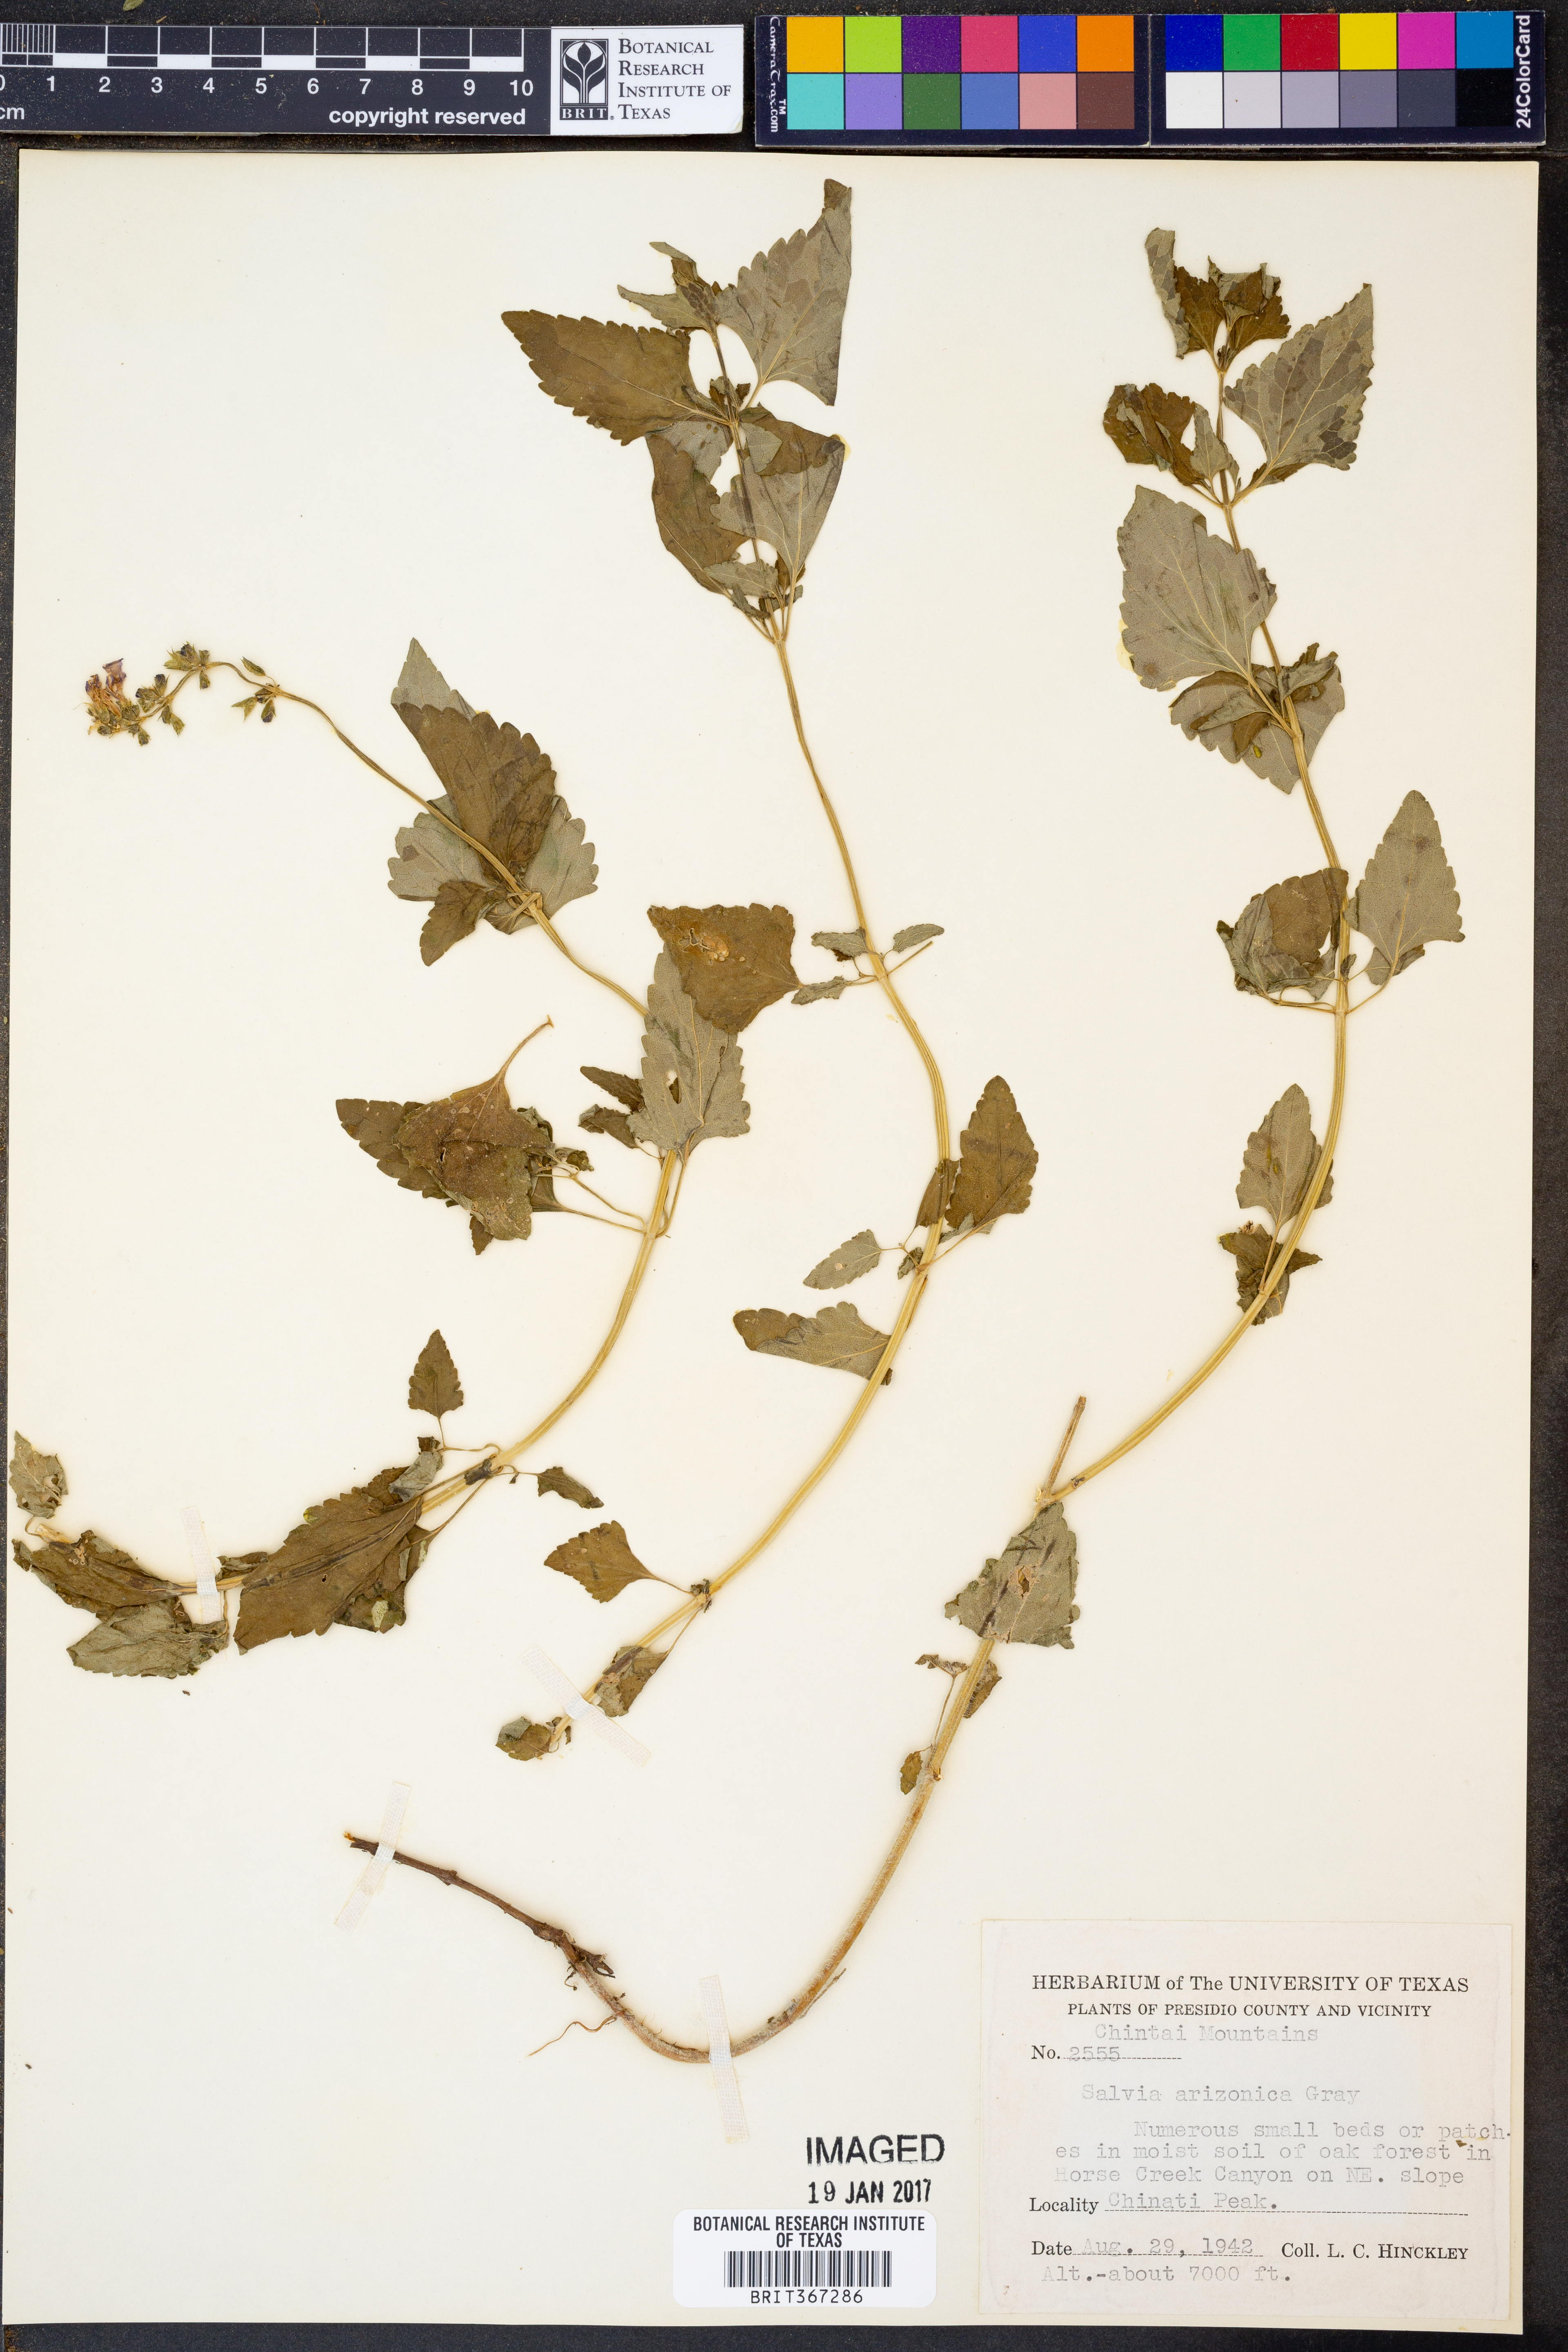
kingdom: Plantae
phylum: Tracheophyta
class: Magnoliopsida
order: Lamiales
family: Lamiaceae
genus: Salvia
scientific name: Salvia arizonica
